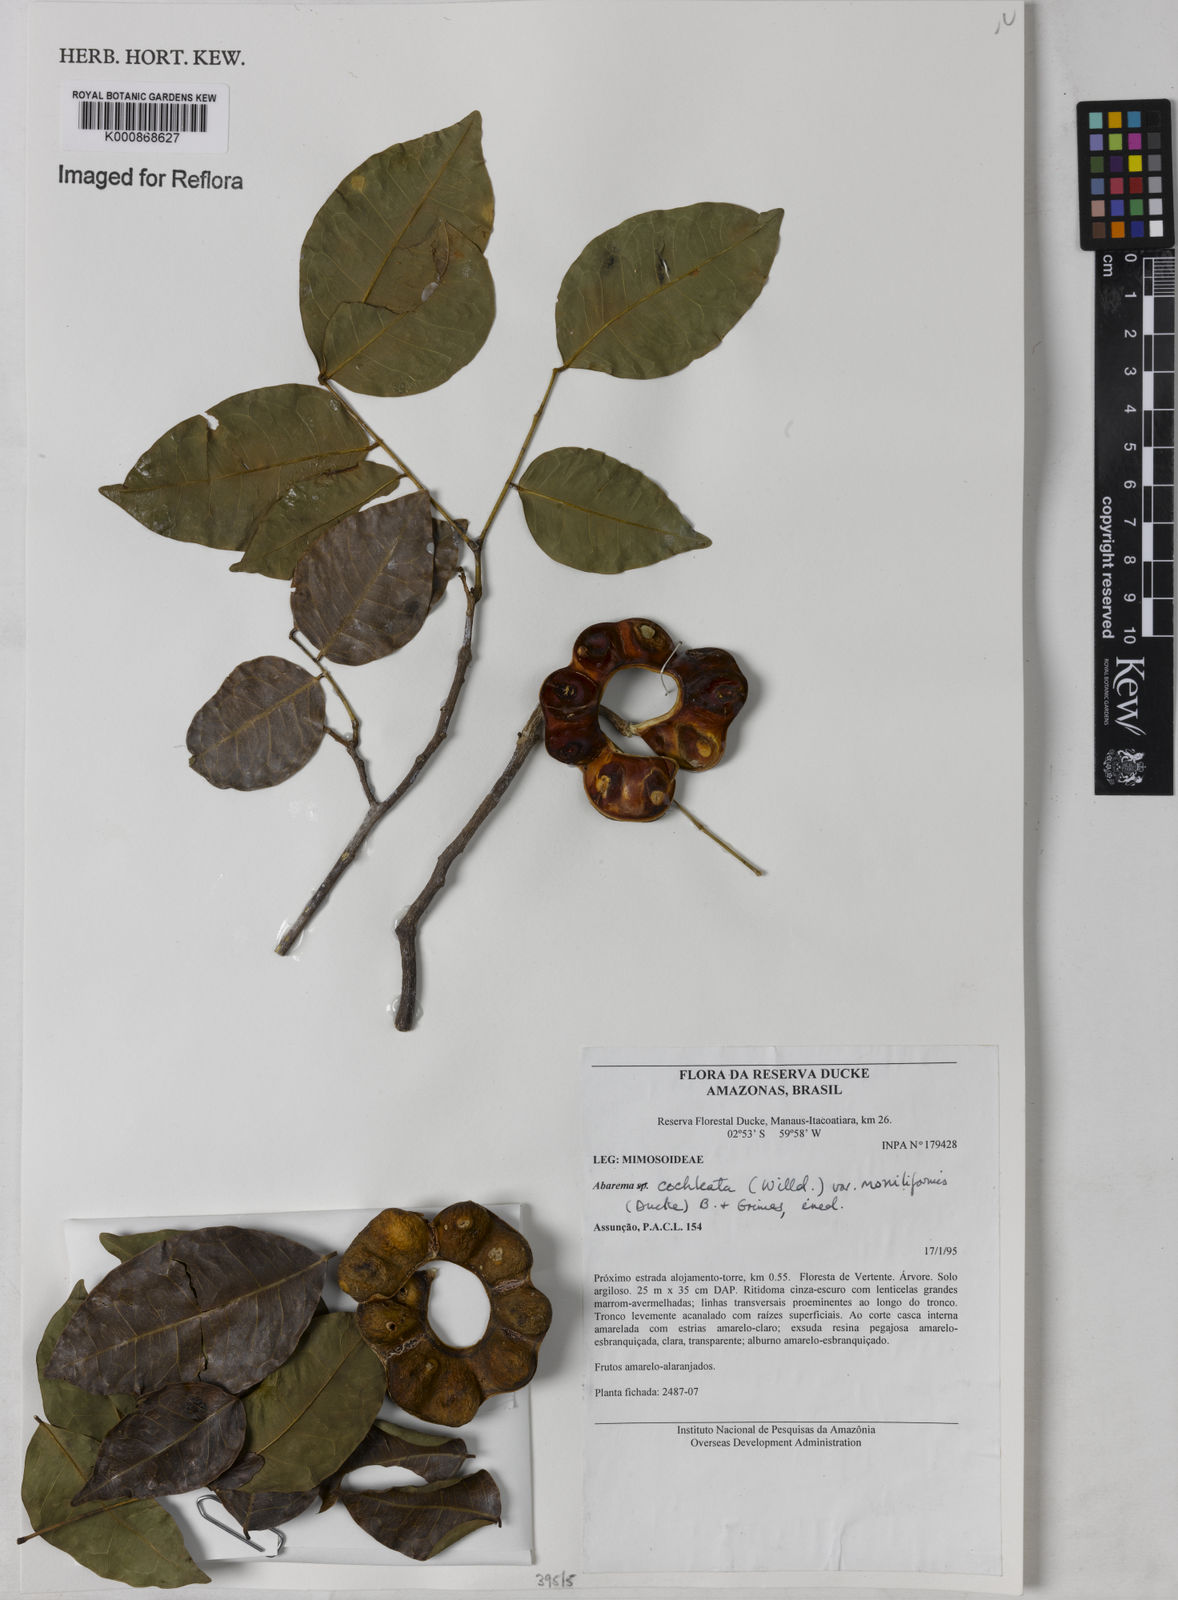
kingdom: Plantae
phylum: Tracheophyta
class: Magnoliopsida
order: Fabales
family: Fabaceae
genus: Jupunba
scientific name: Jupunba cochleata
